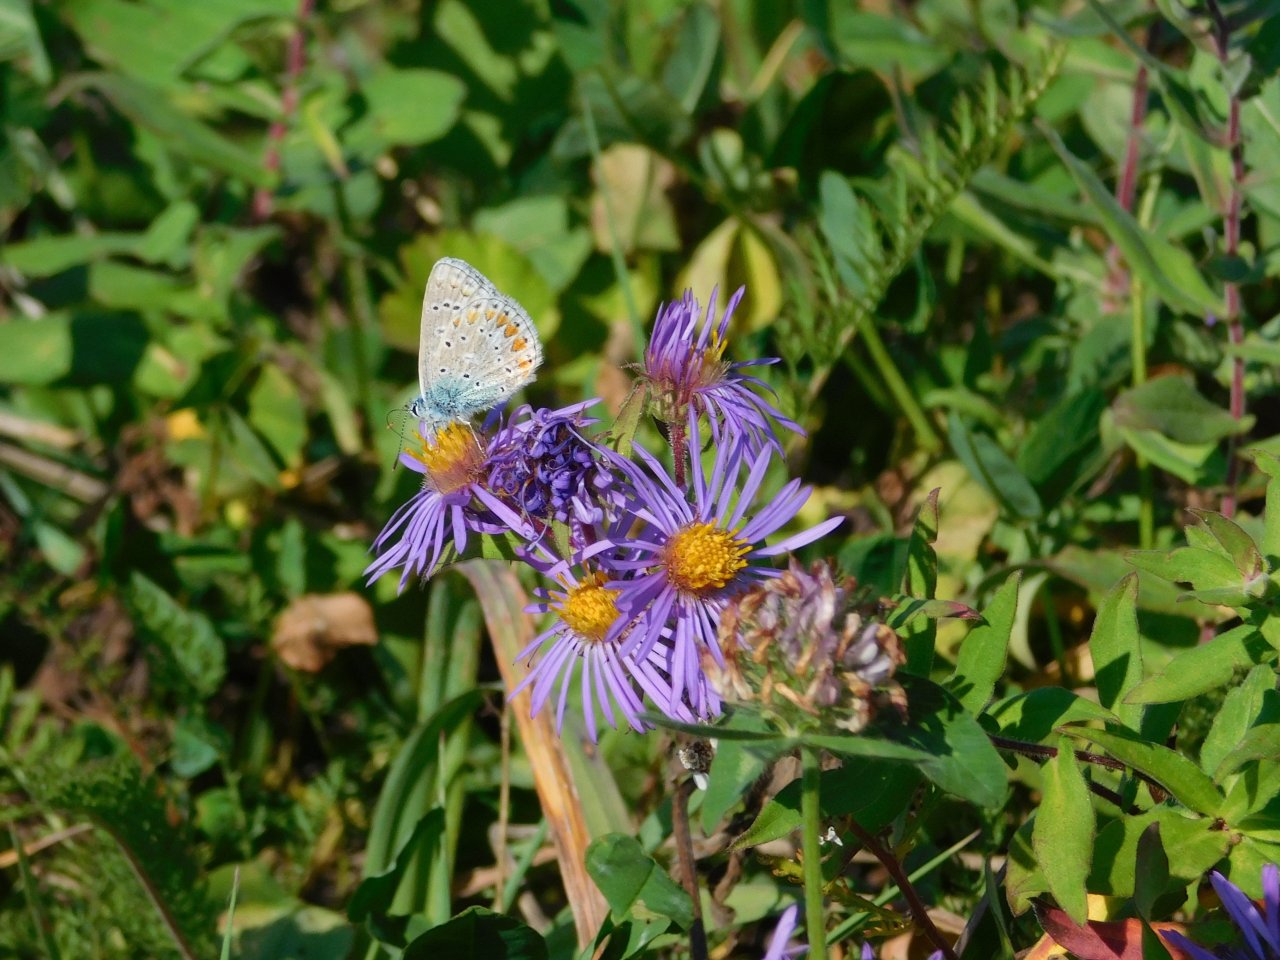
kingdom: Animalia
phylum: Arthropoda
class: Insecta
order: Lepidoptera
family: Lycaenidae
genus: Polyommatus
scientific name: Polyommatus icarus
